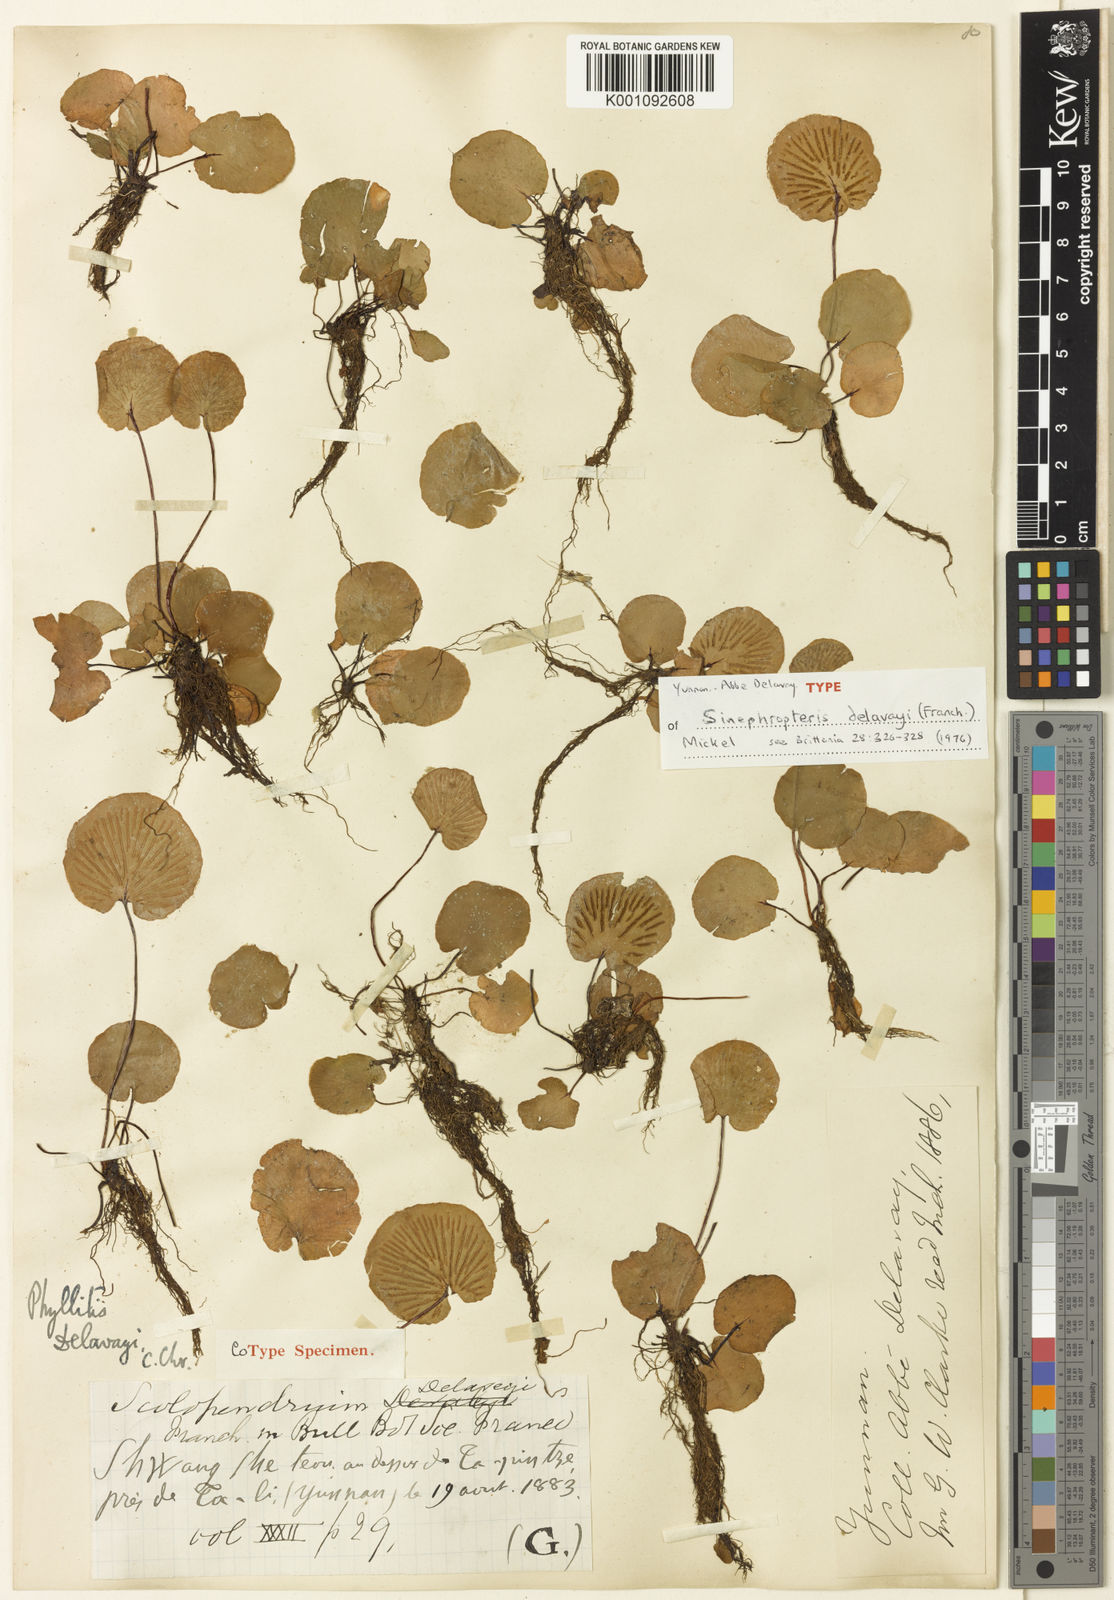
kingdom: Plantae
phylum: Tracheophyta
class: Polypodiopsida
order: Polypodiales
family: Aspleniaceae
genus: Asplenium
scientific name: Asplenium delavayi
